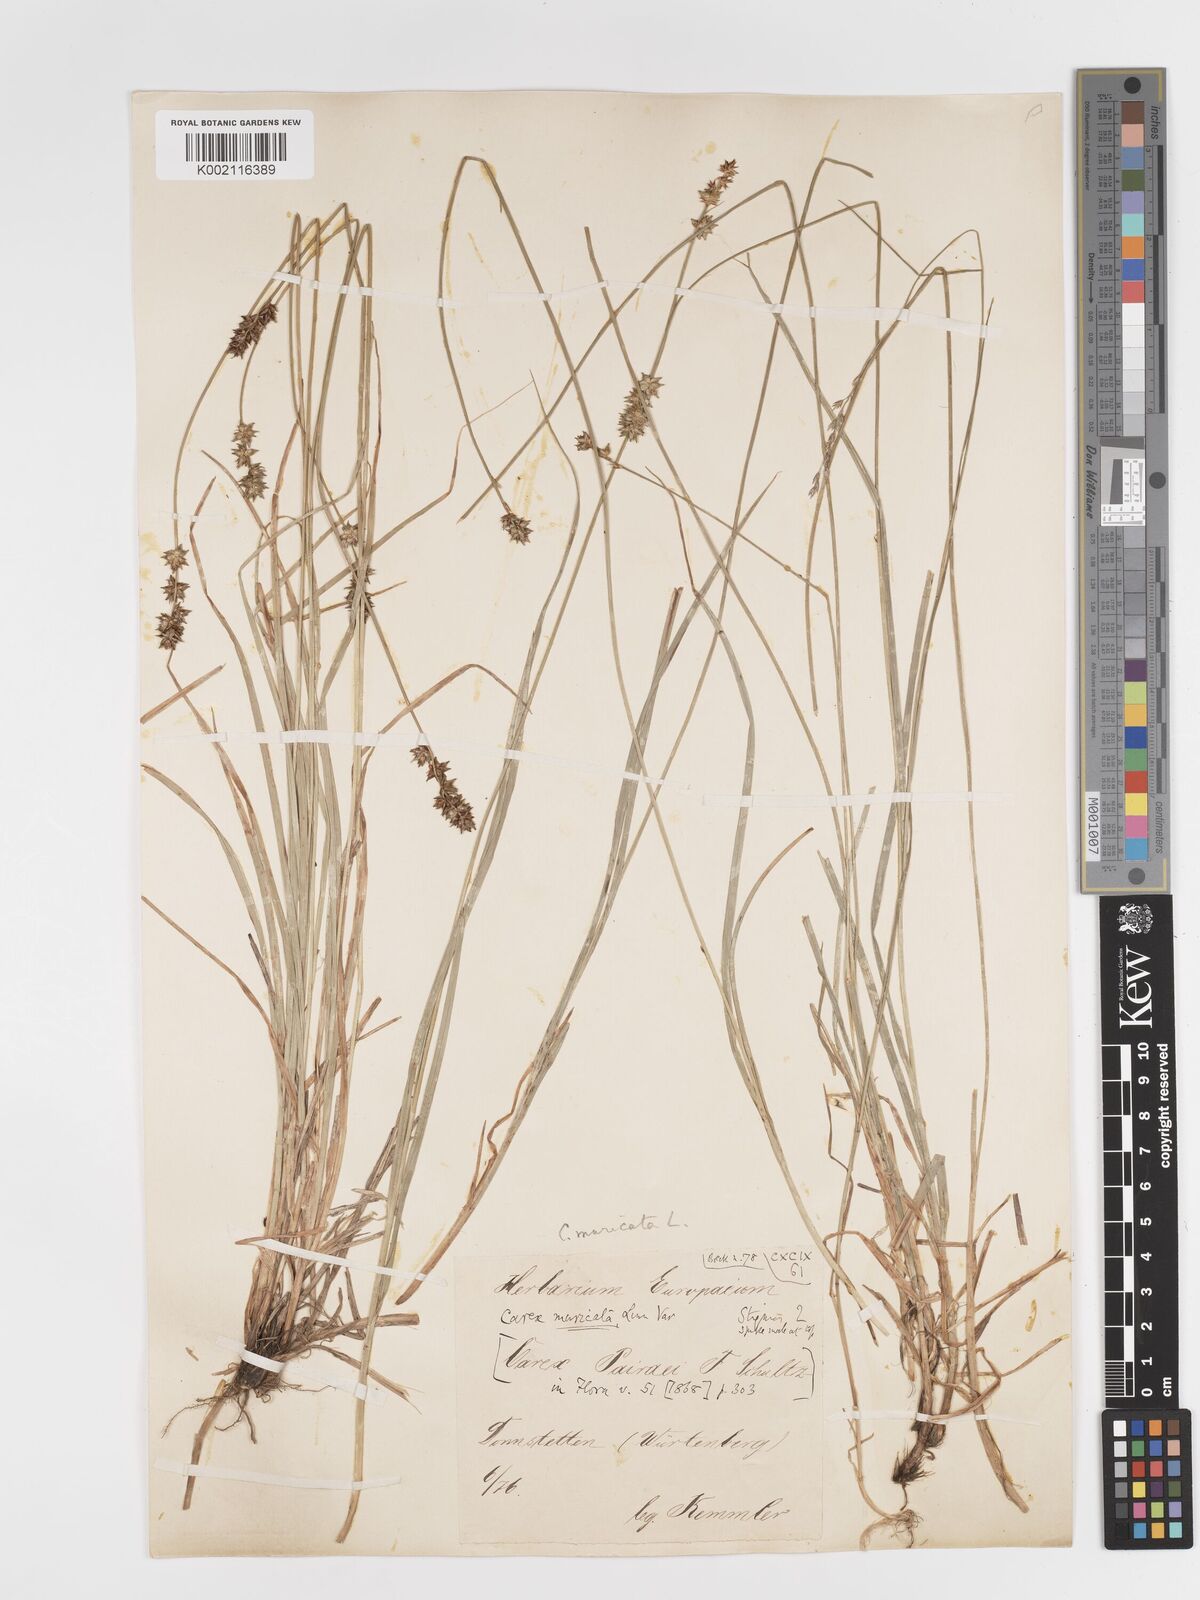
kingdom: Plantae
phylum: Tracheophyta
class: Liliopsida
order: Poales
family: Cyperaceae
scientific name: Cyperaceae
